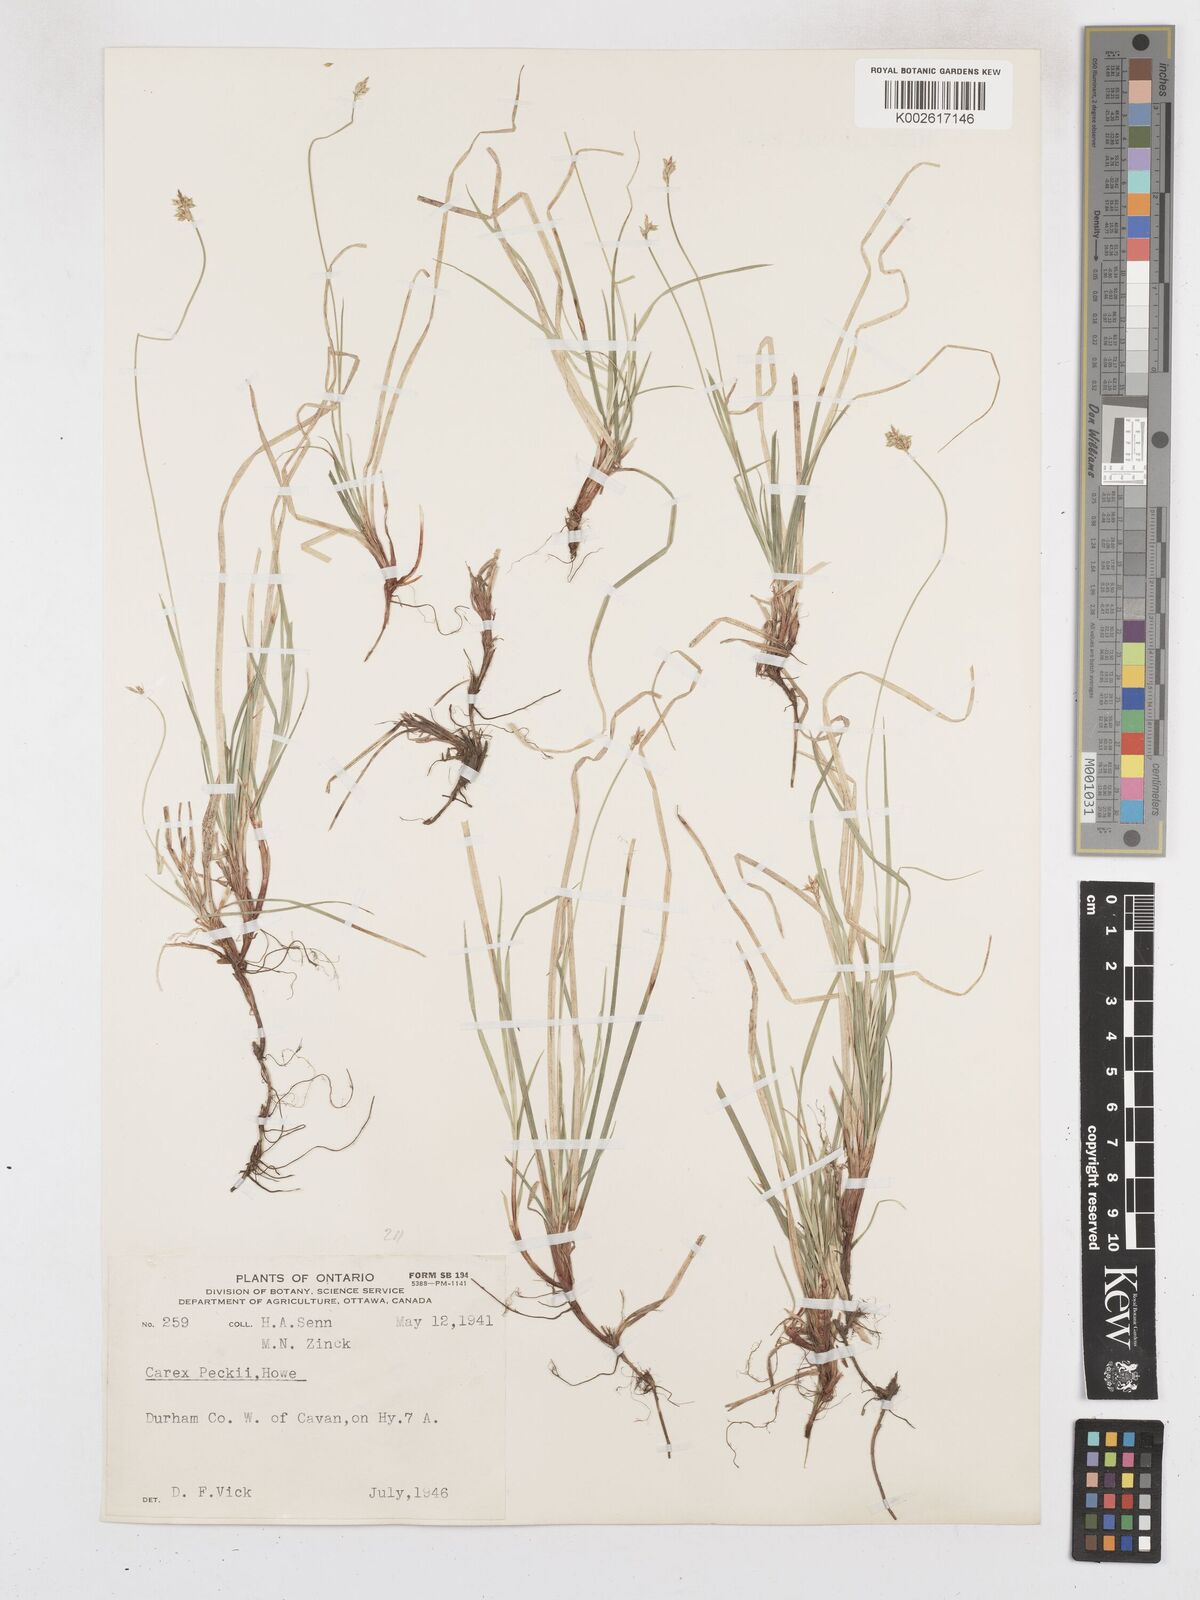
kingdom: Plantae
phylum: Tracheophyta
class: Liliopsida
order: Poales
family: Cyperaceae
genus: Carex
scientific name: Carex peckii
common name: Peck's oak sedge
